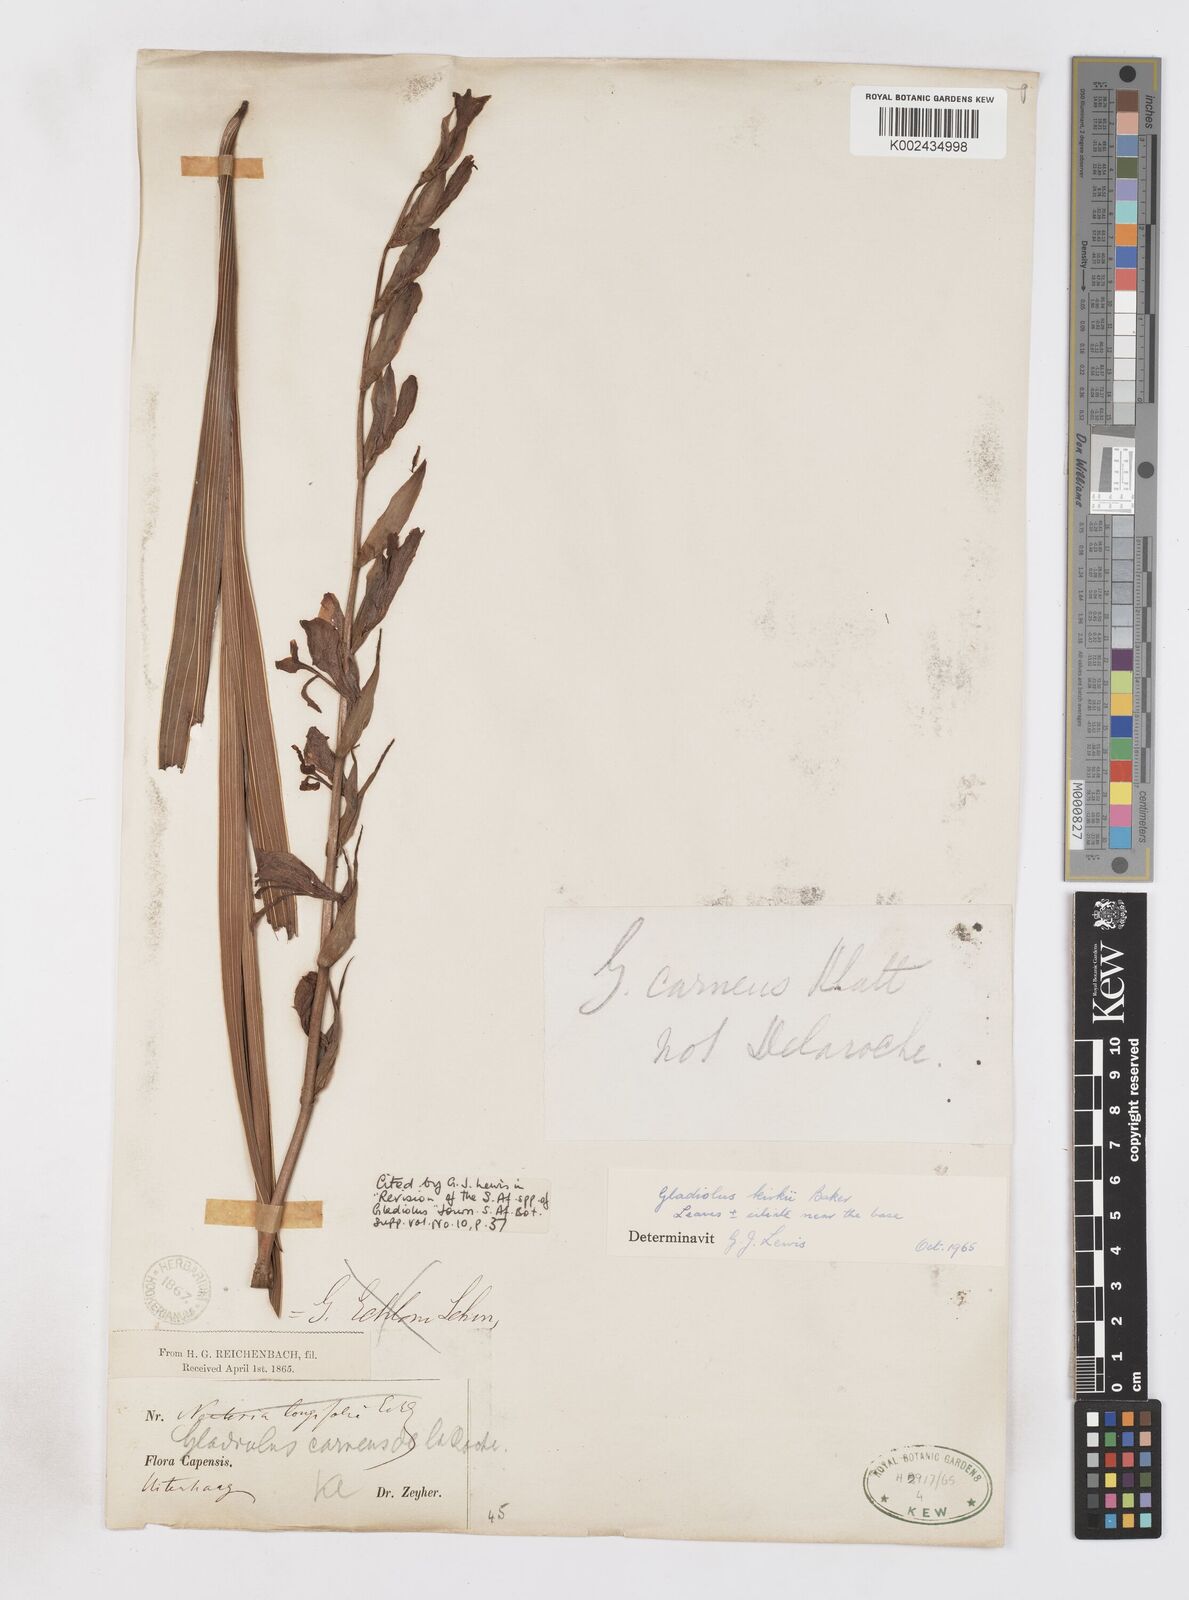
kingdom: Plantae
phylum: Tracheophyta
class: Liliopsida
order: Asparagales
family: Iridaceae
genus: Gladiolus
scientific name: Gladiolus ochroleucus
